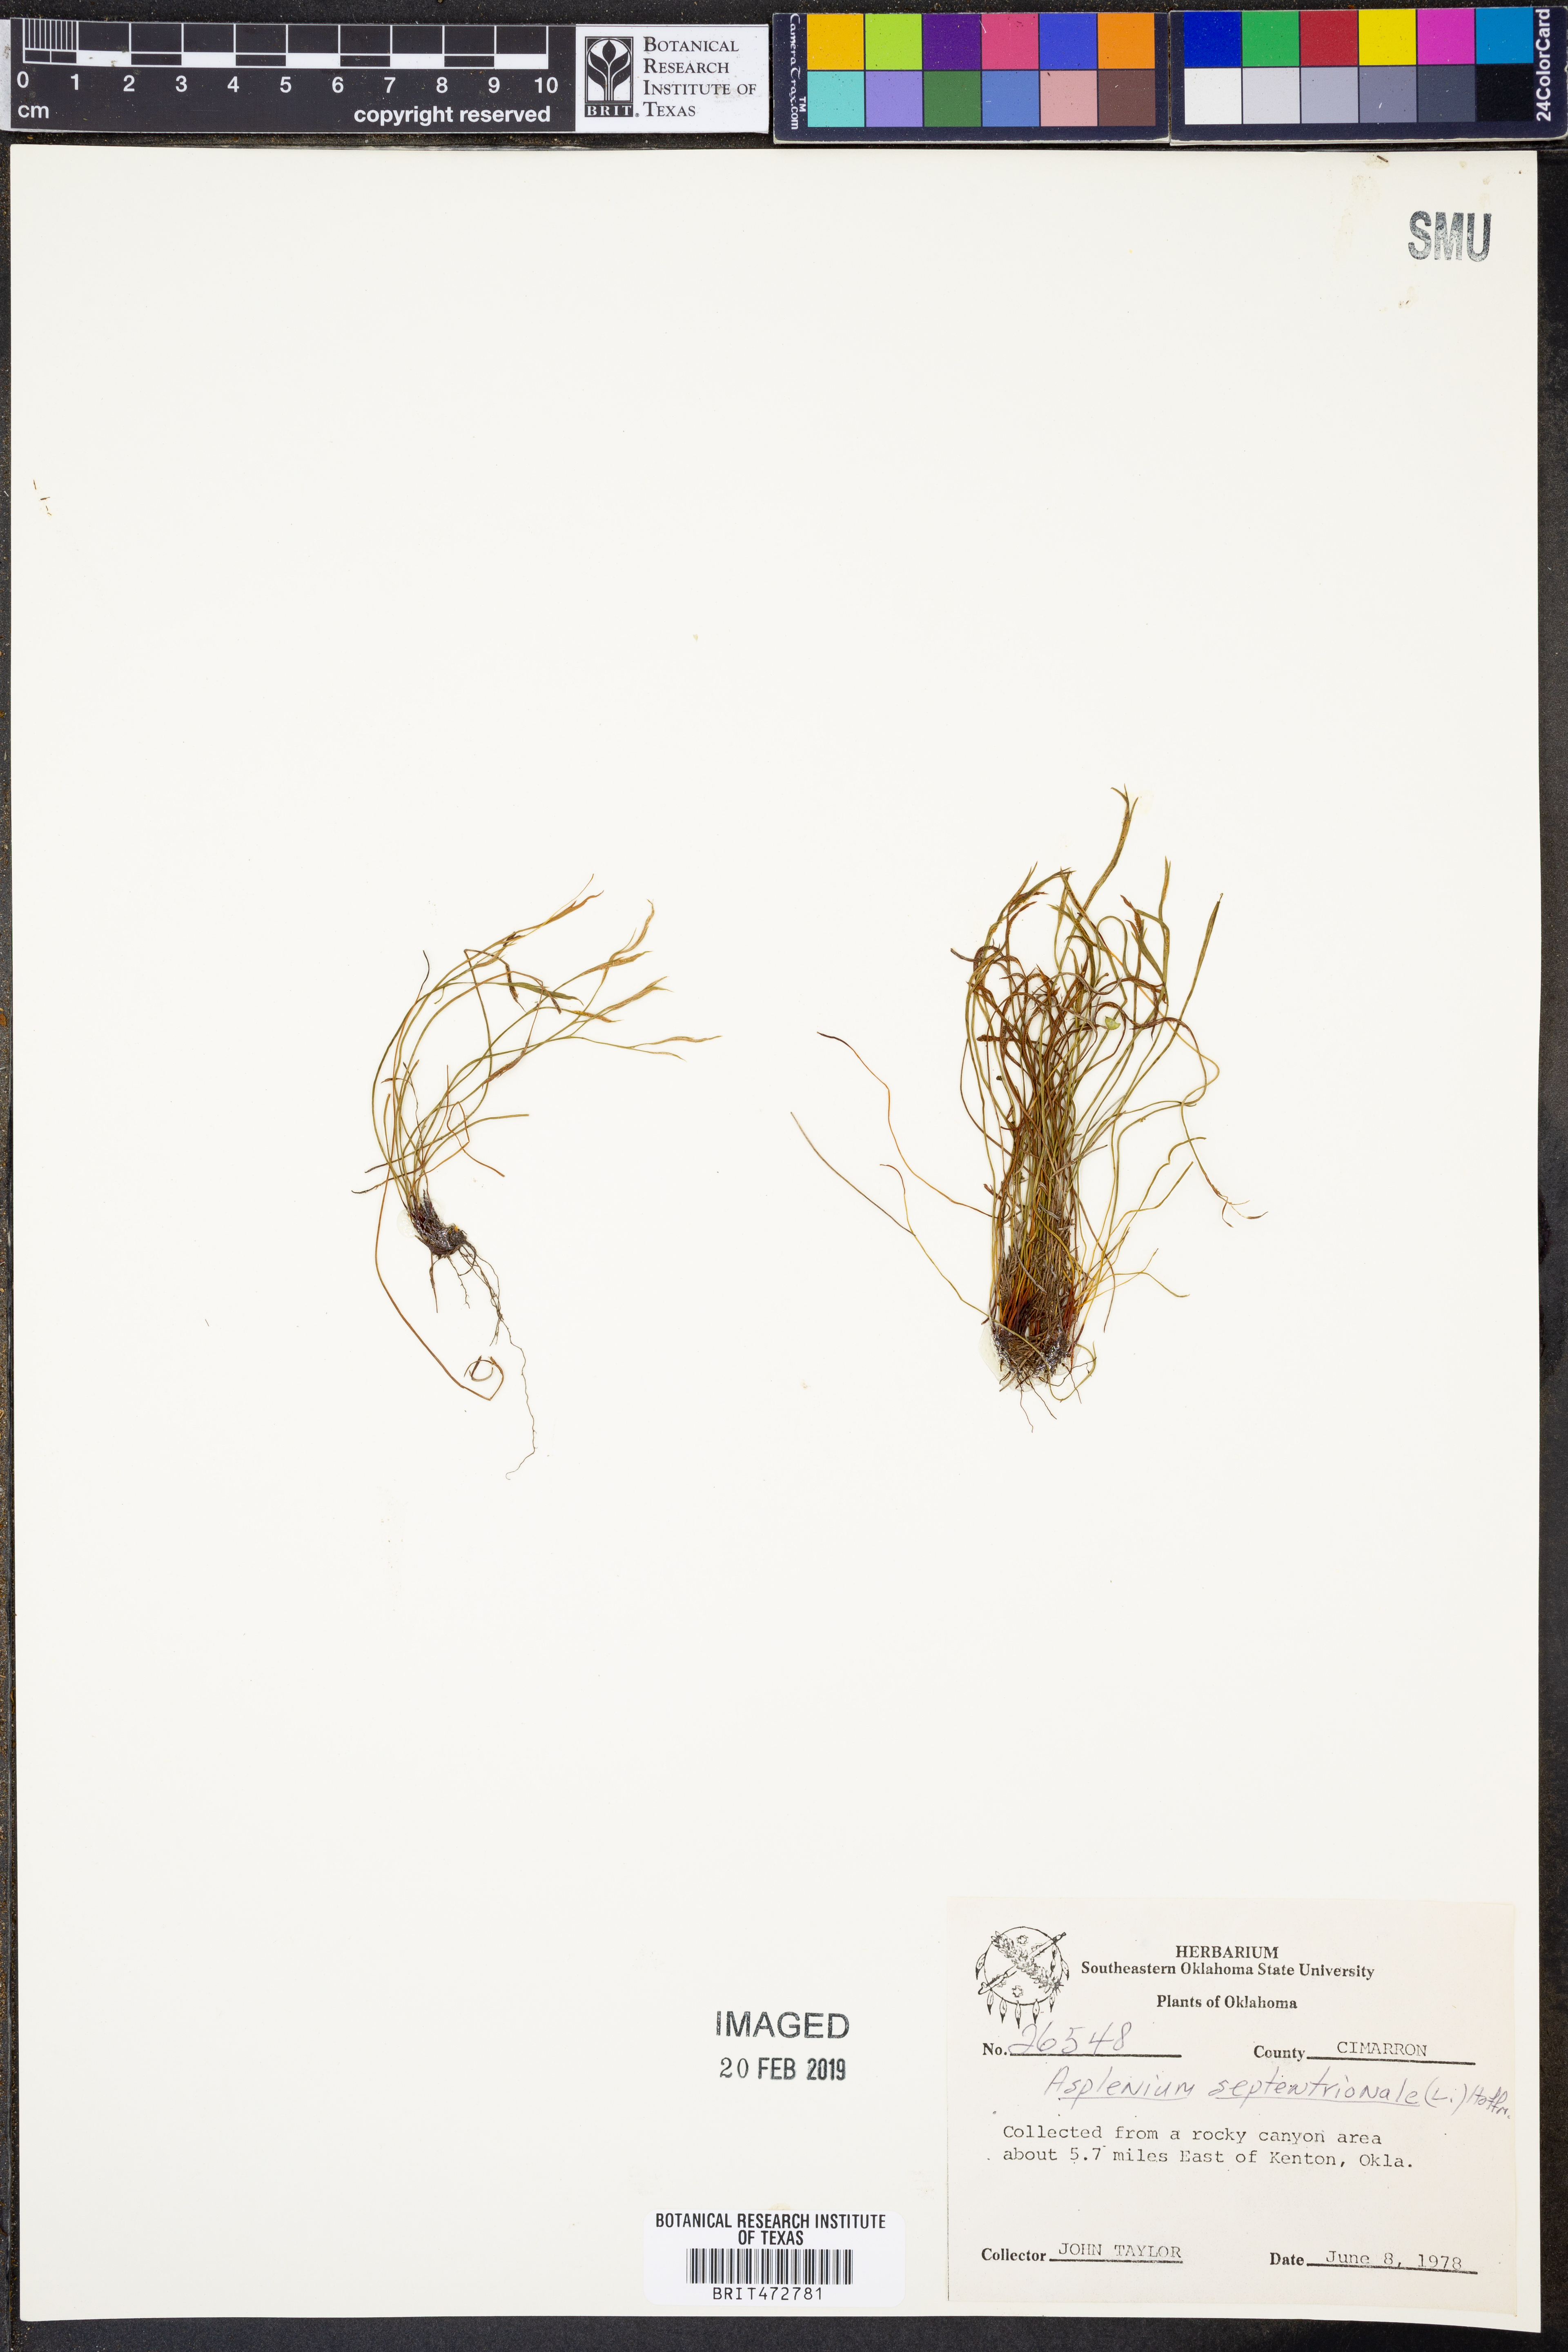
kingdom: Plantae
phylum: Tracheophyta
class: Polypodiopsida
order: Polypodiales
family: Aspleniaceae
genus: Asplenium
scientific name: Asplenium septentrionale
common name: Forked spleenwort
